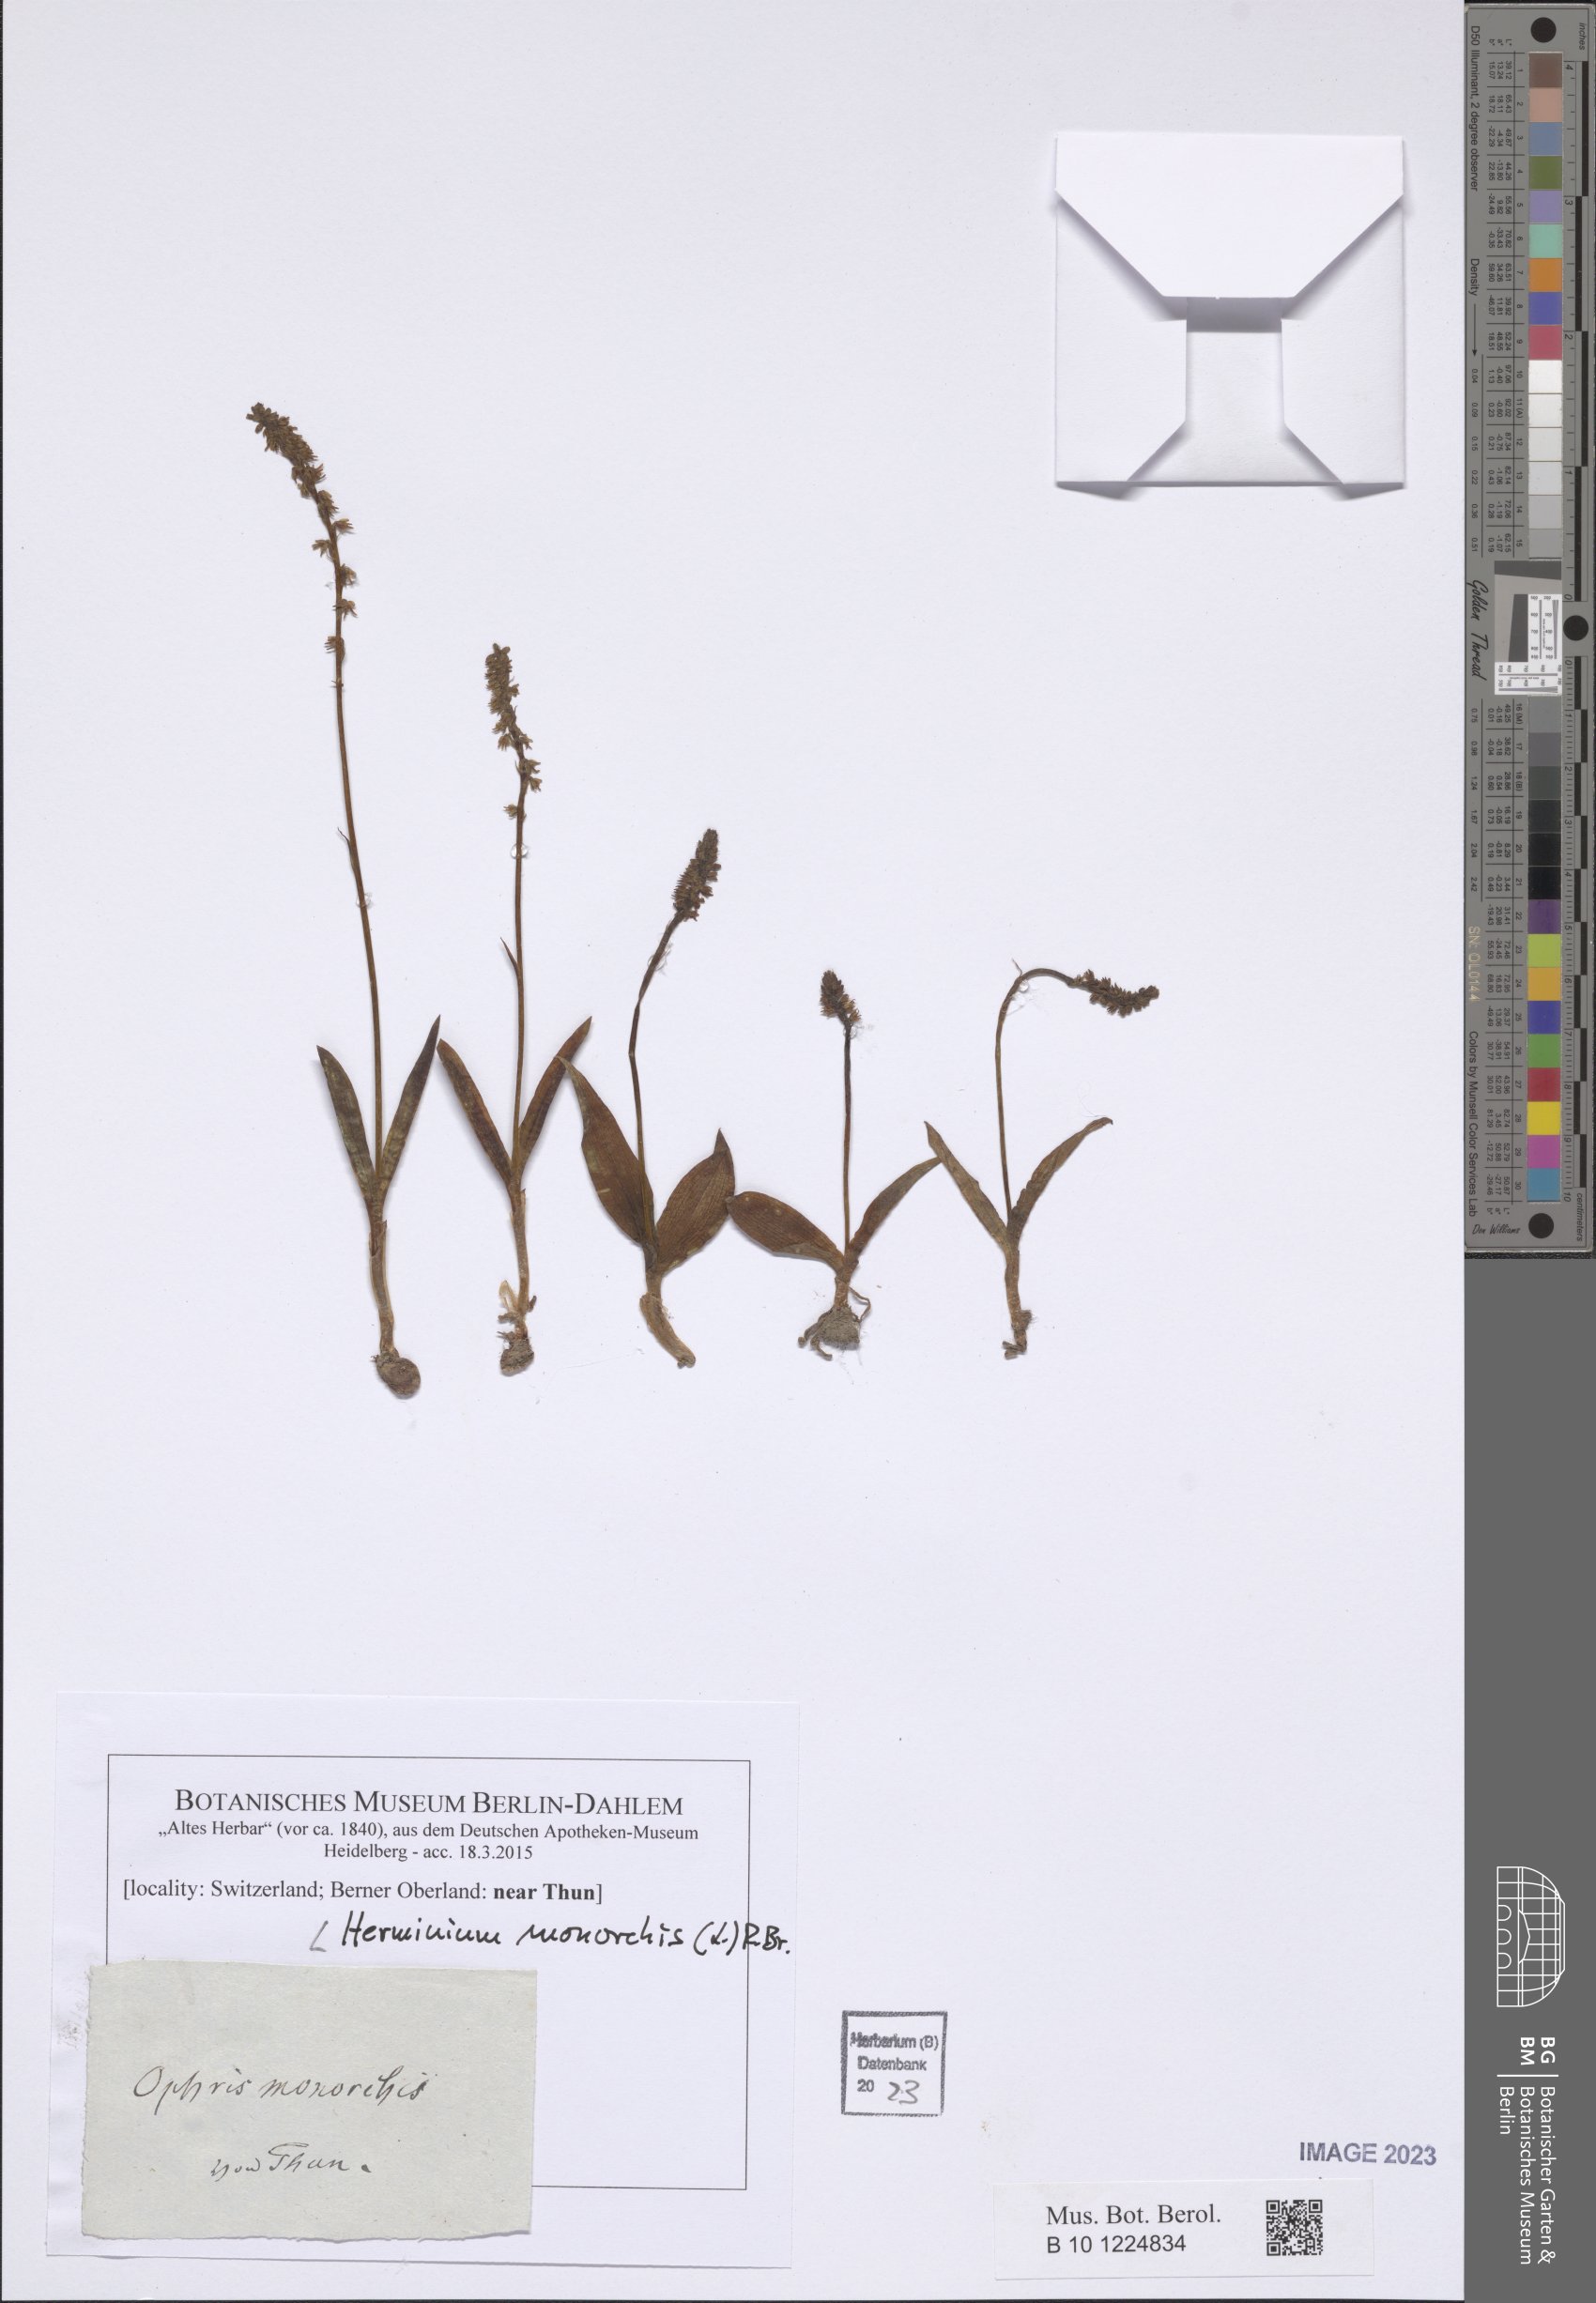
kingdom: Plantae
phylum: Tracheophyta
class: Liliopsida
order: Asparagales
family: Orchidaceae
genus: Herminium
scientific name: Herminium monorchis
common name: Musk orchid
